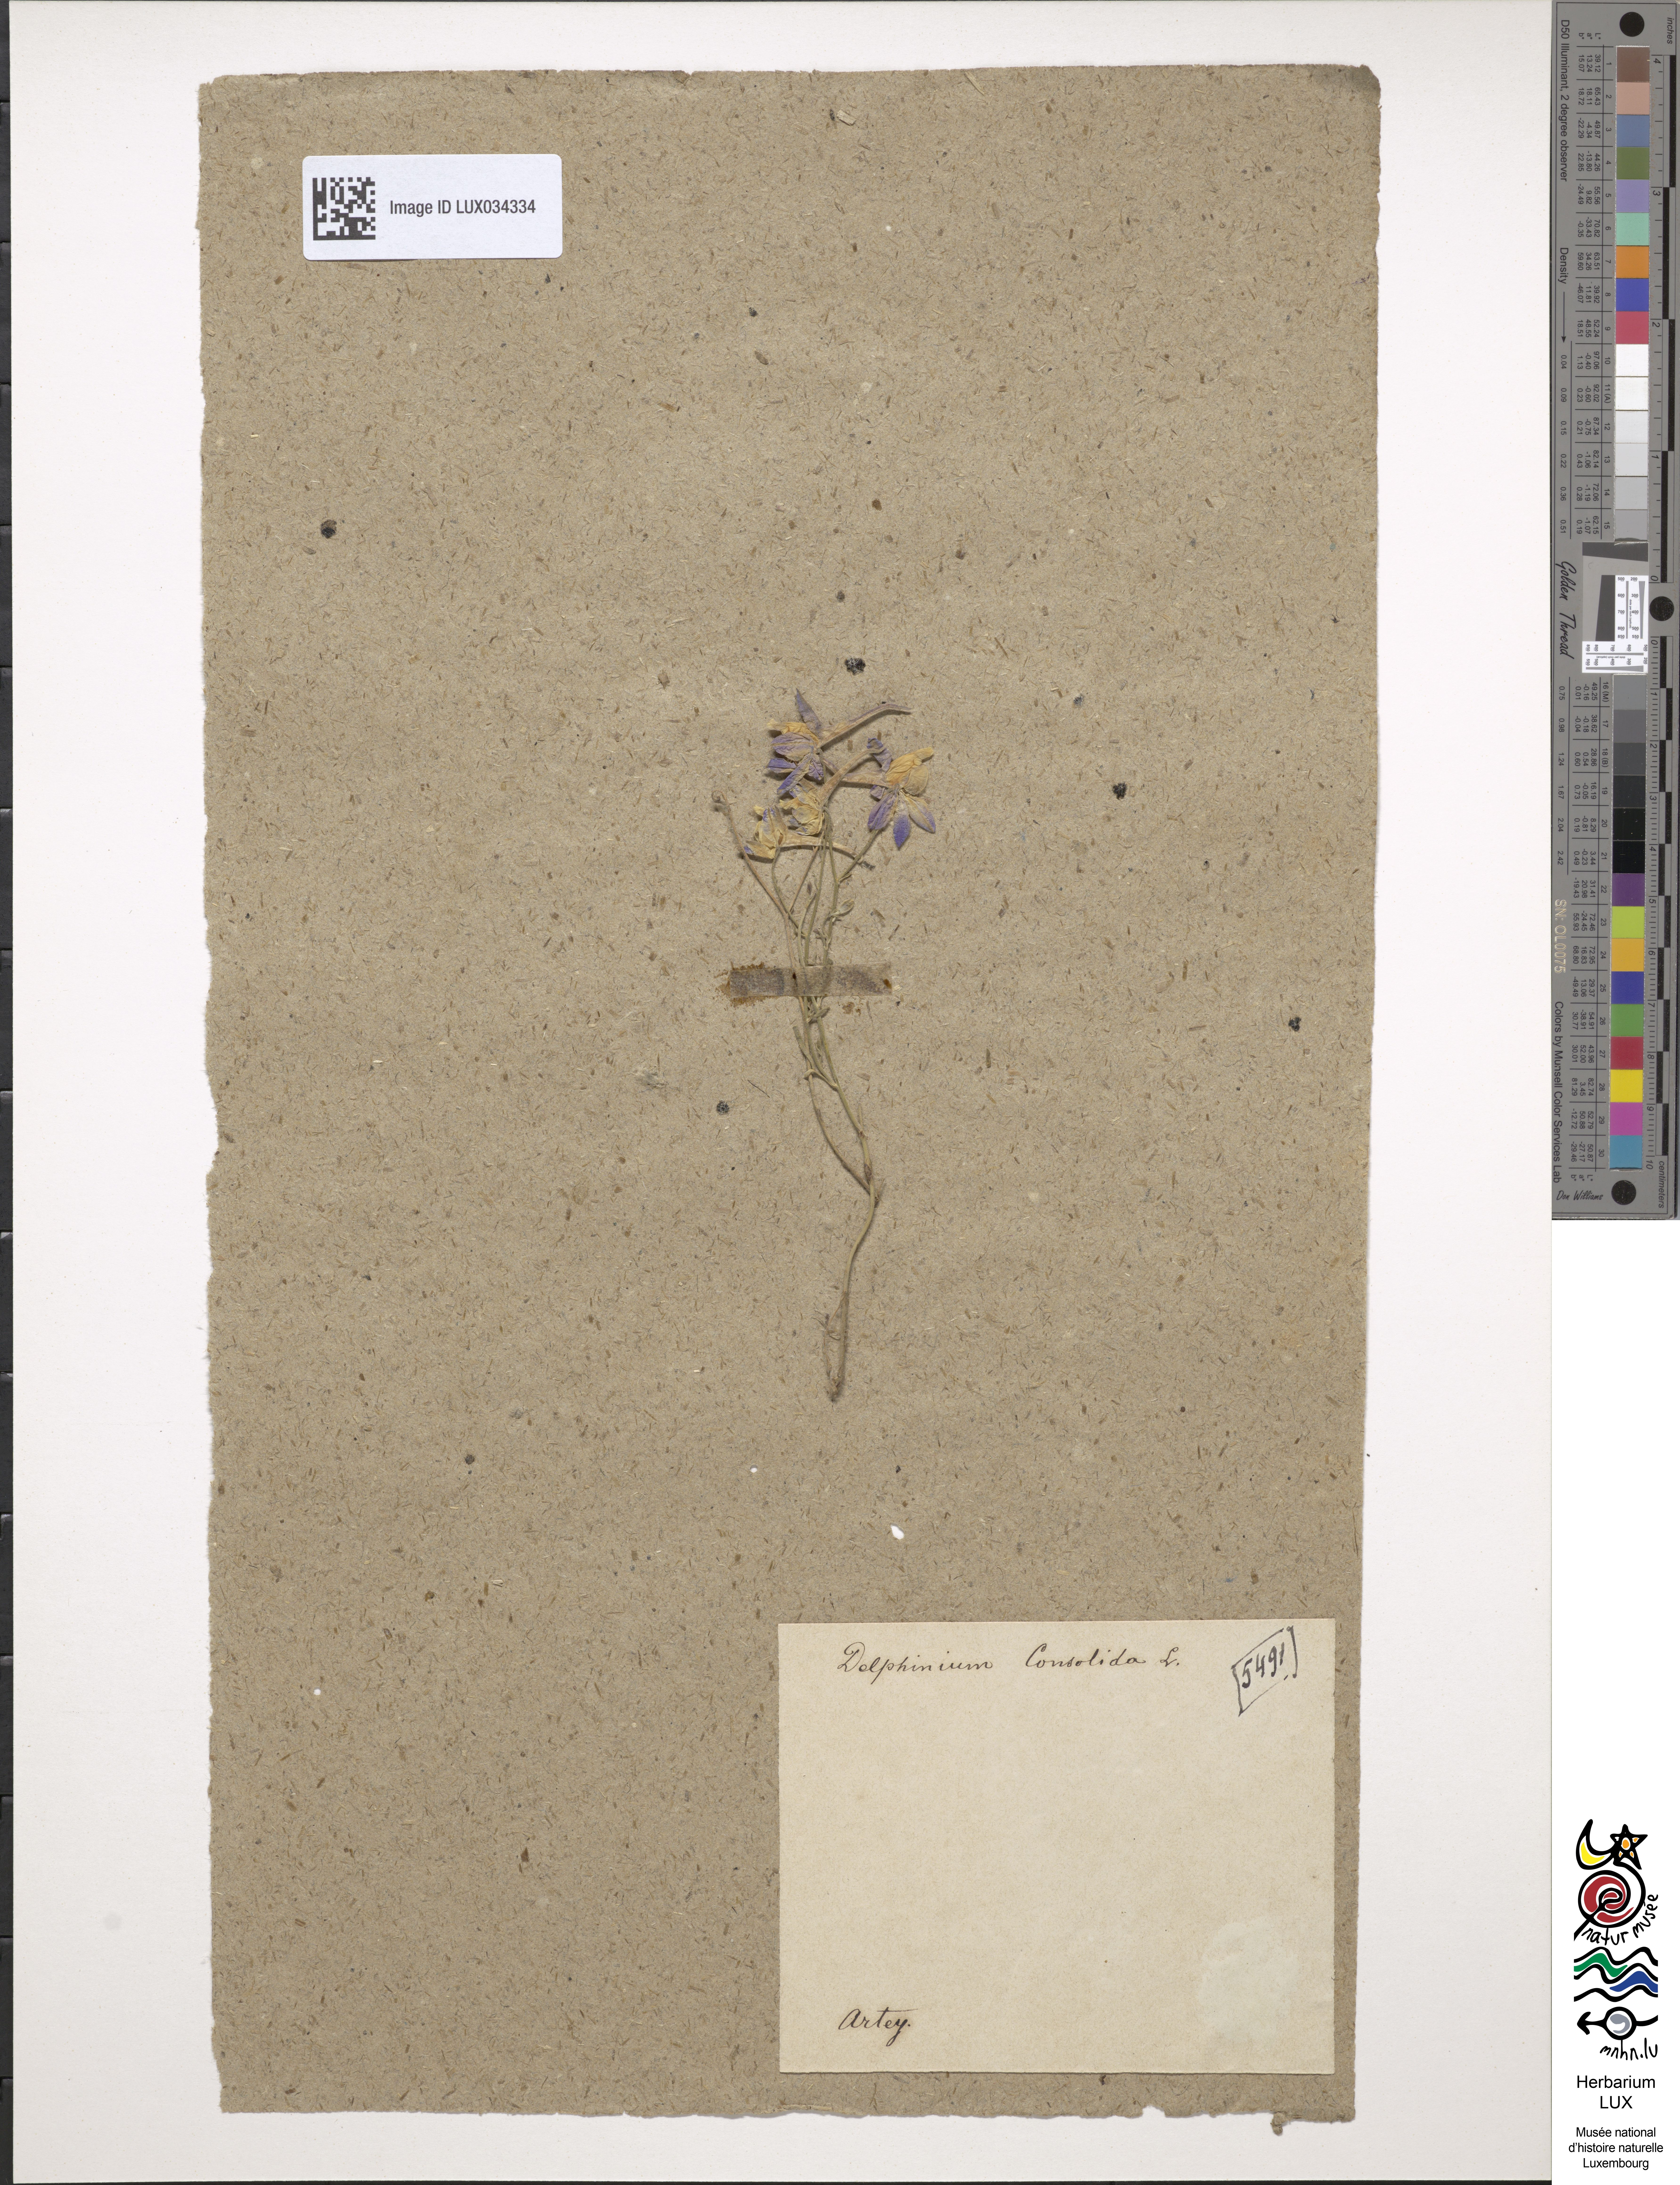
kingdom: Plantae
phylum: Tracheophyta
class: Magnoliopsida
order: Ranunculales
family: Ranunculaceae
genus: Delphinium
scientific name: Delphinium consolida
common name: Branching larkspur
